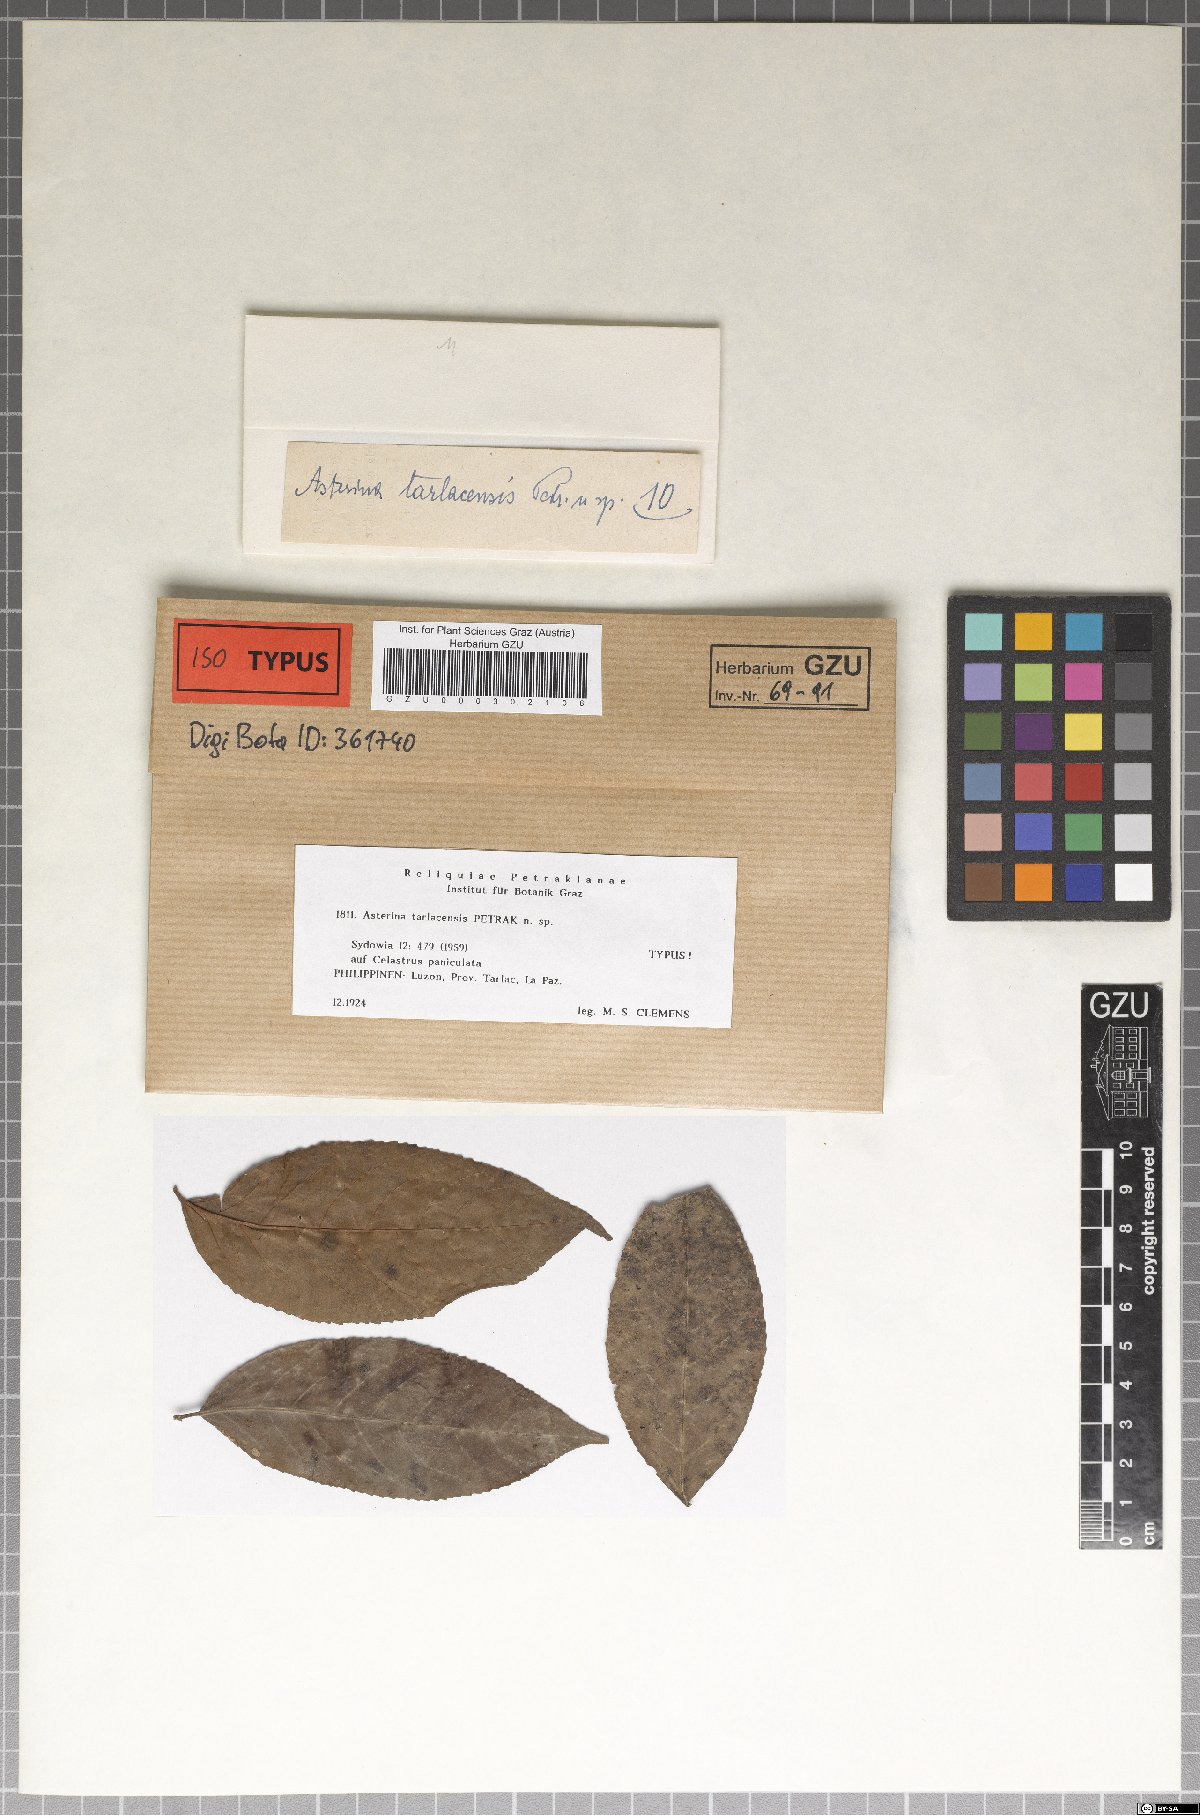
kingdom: Fungi
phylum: Ascomycota
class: Dothideomycetes
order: Asterinales
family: Asterinaceae
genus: Asterina
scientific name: Asterina tarlacensis
